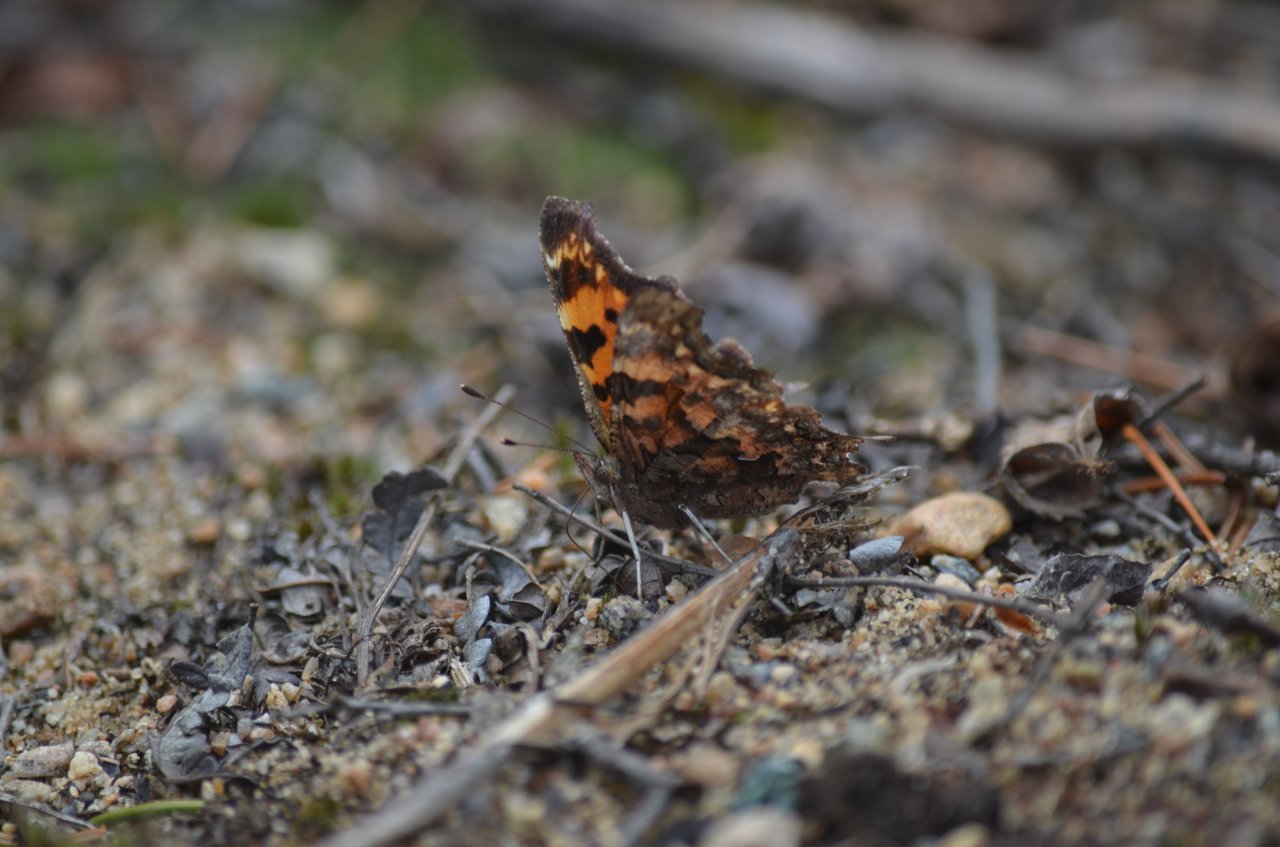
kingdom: Animalia
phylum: Arthropoda
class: Insecta
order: Lepidoptera
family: Nymphalidae
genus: Polygonia
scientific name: Polygonia faunus
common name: Green Comma
